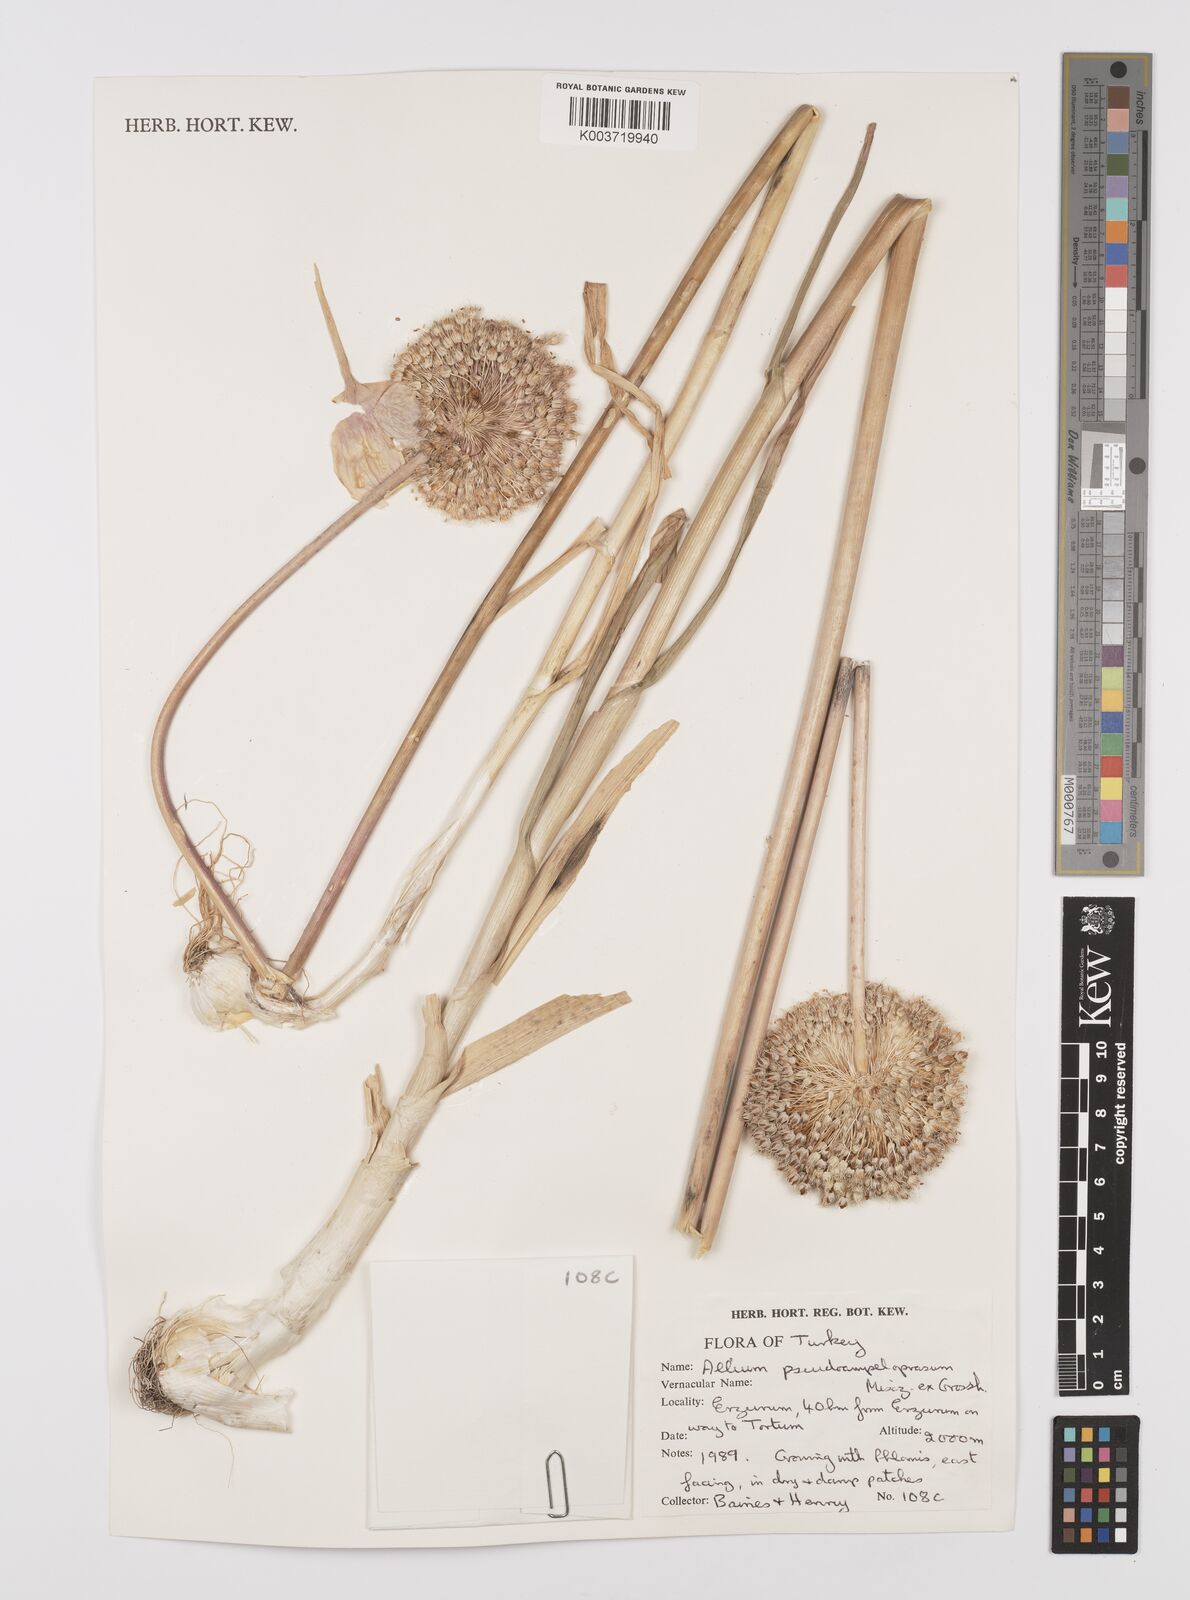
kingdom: Plantae
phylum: Tracheophyta
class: Liliopsida
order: Asparagales
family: Amaryllidaceae
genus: Allium
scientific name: Allium pseudoampeloprasum
